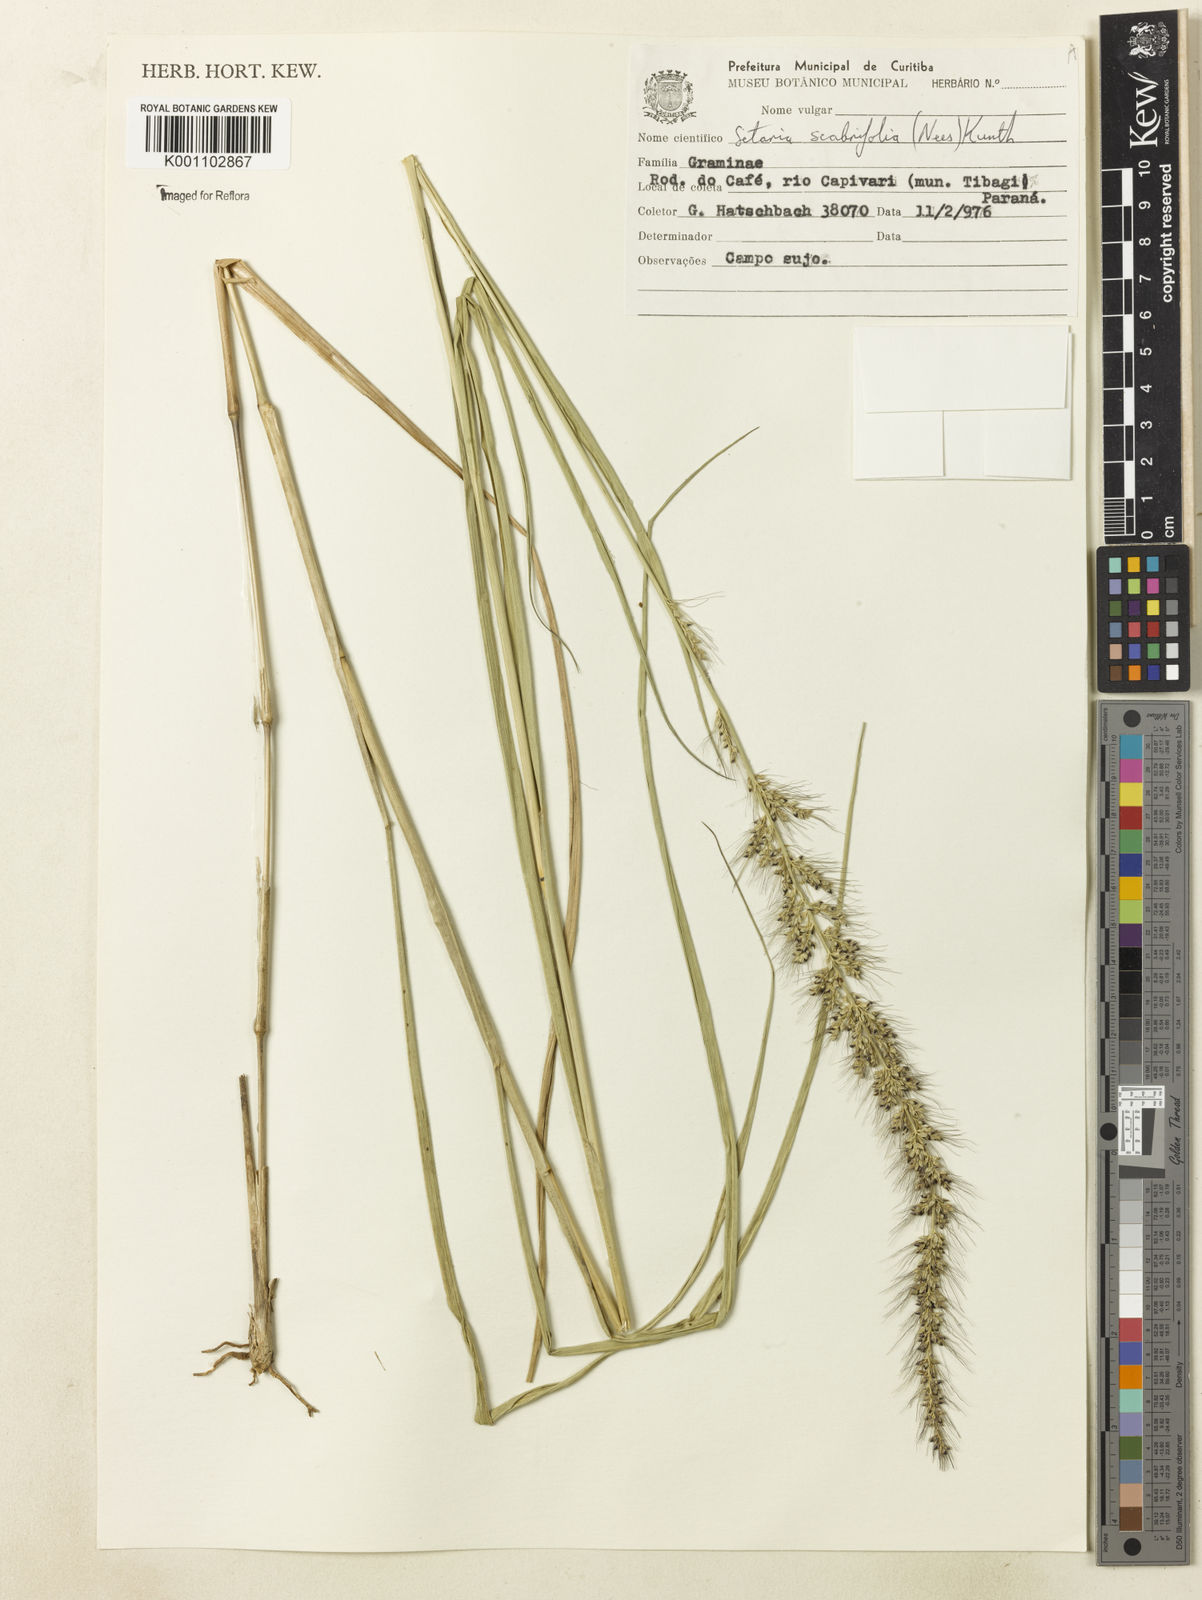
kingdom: Plantae
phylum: Tracheophyta
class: Liliopsida
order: Poales
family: Poaceae
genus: Setaria
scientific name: Setaria scabrifolia
